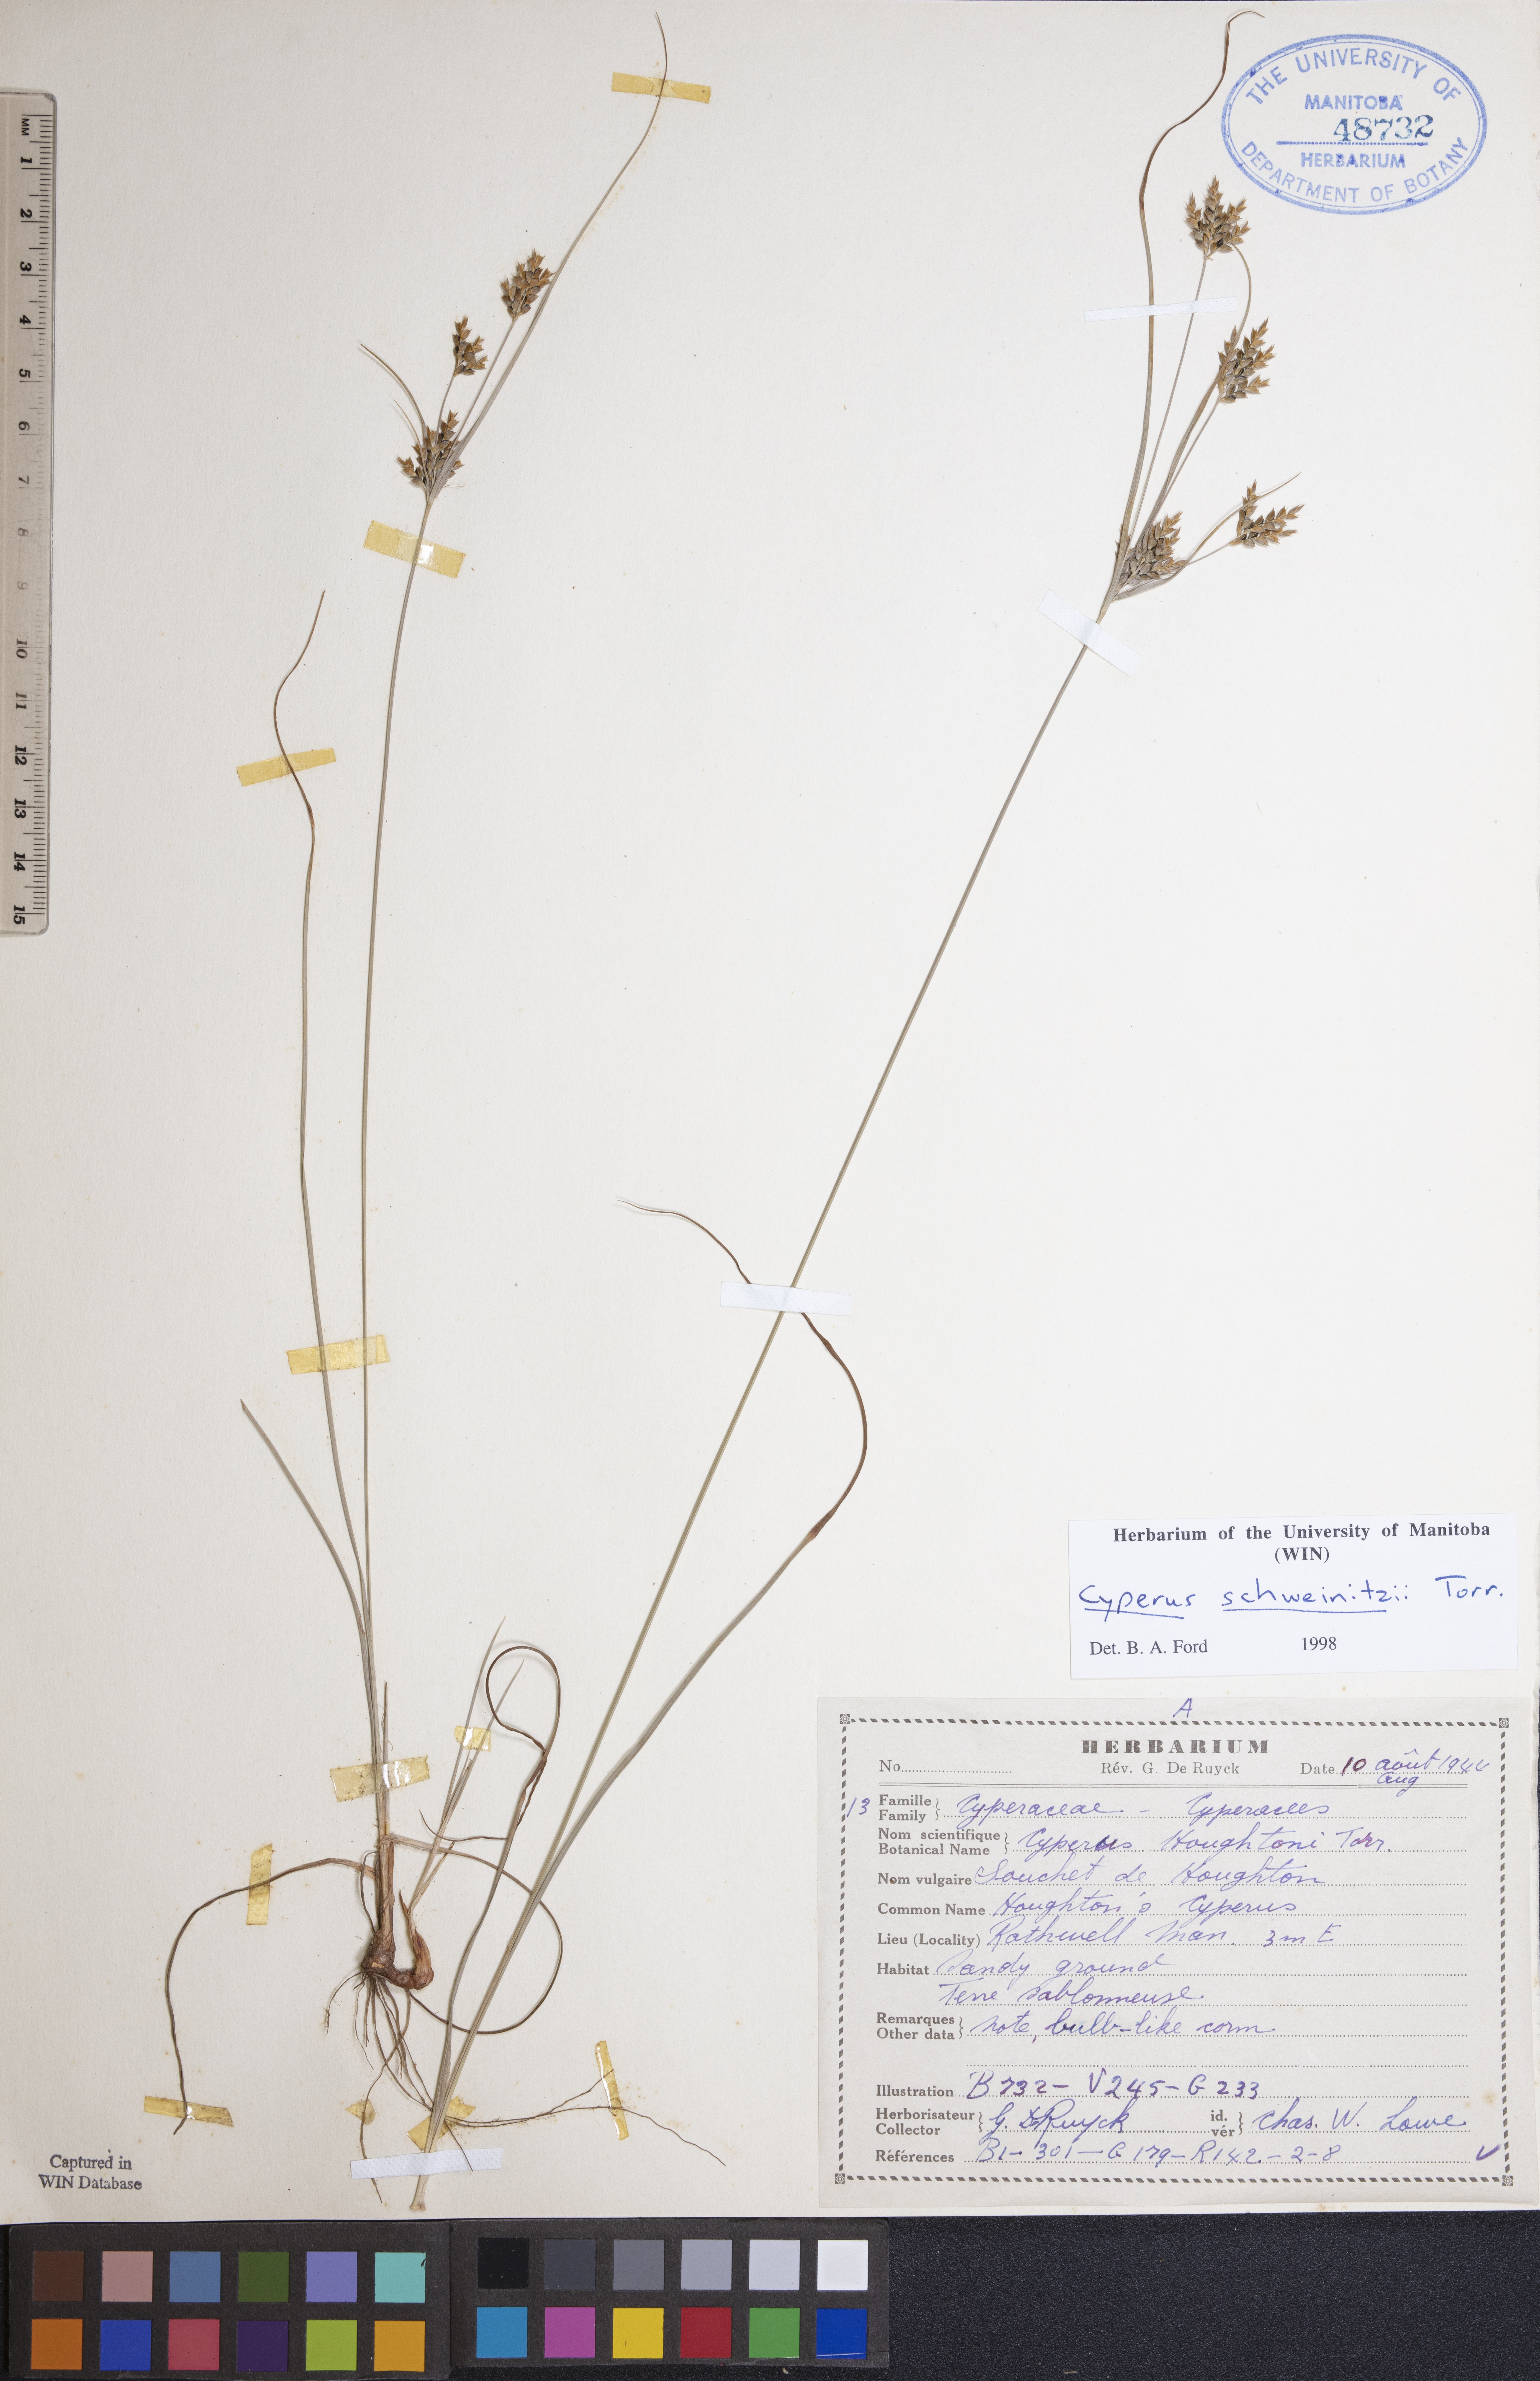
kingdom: Plantae
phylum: Tracheophyta
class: Liliopsida
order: Poales
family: Cyperaceae
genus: Cyperus
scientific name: Cyperus schweinitzii
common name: Schweinitz's cyperus
